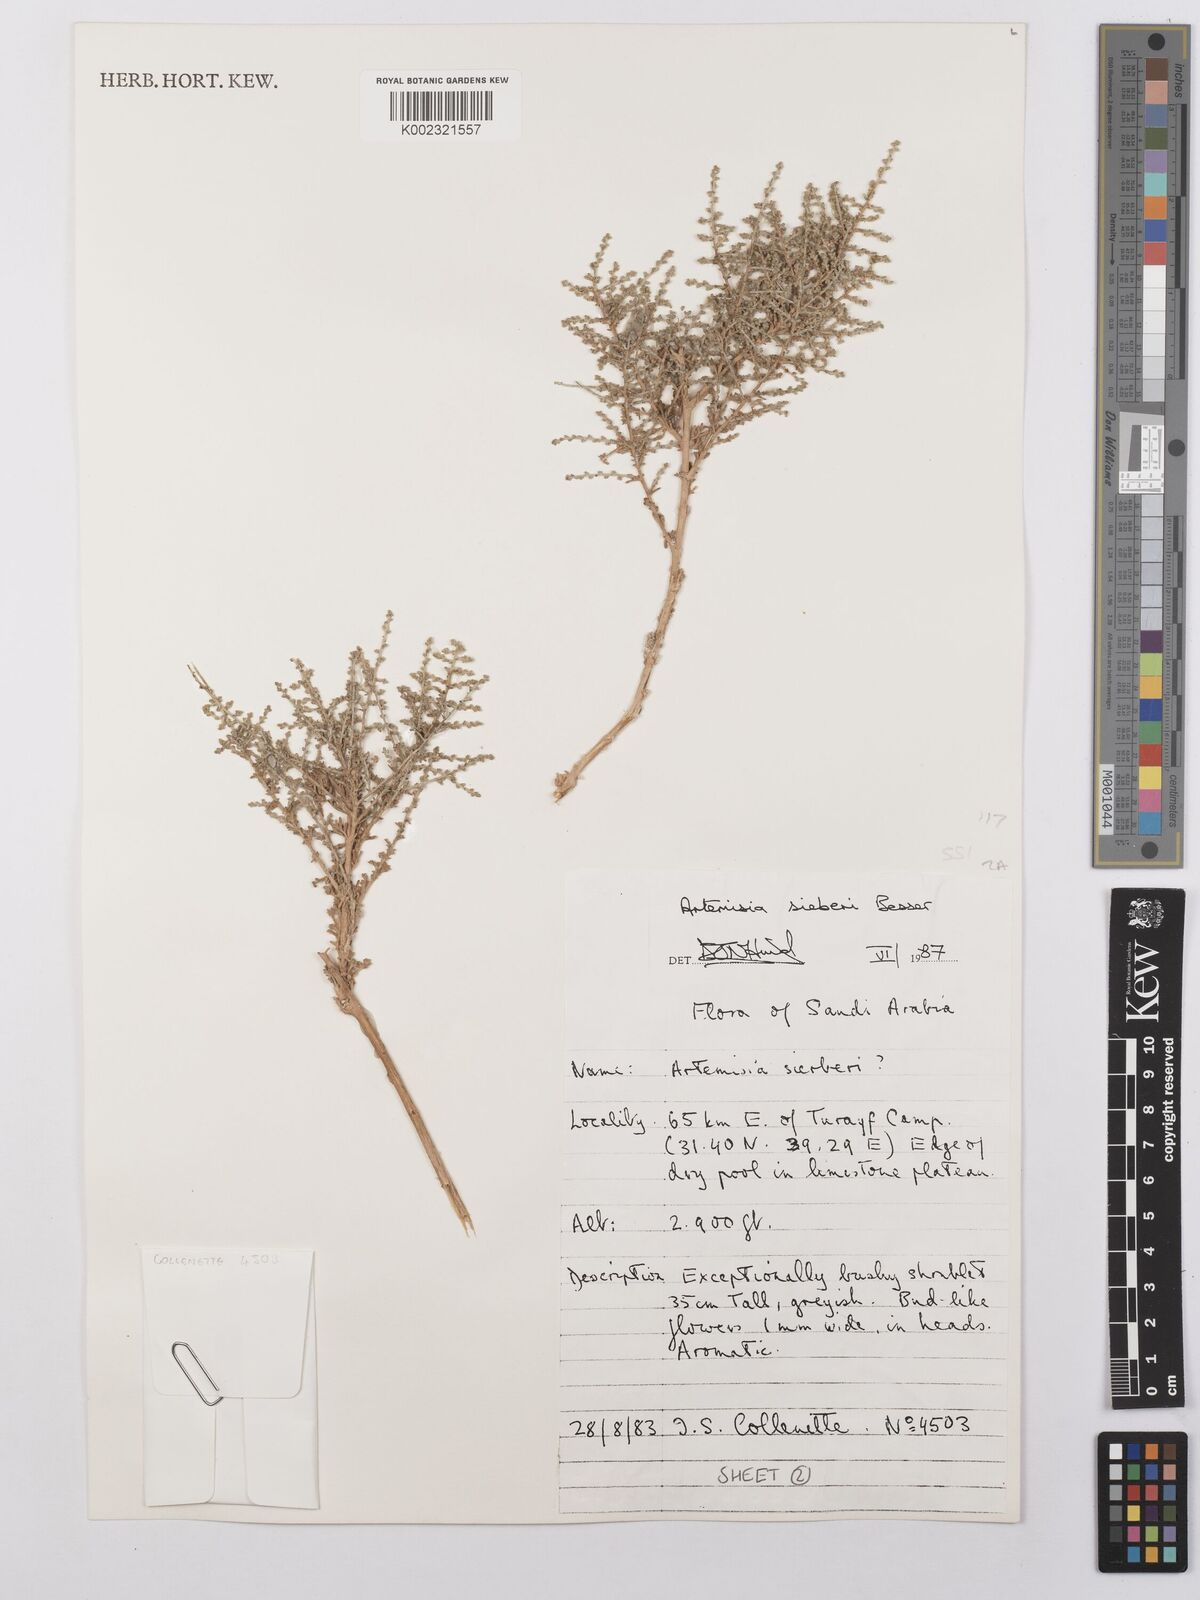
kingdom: Plantae
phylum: Tracheophyta
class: Magnoliopsida
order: Asterales
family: Asteraceae
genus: Artemisia
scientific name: Artemisia sieberi
